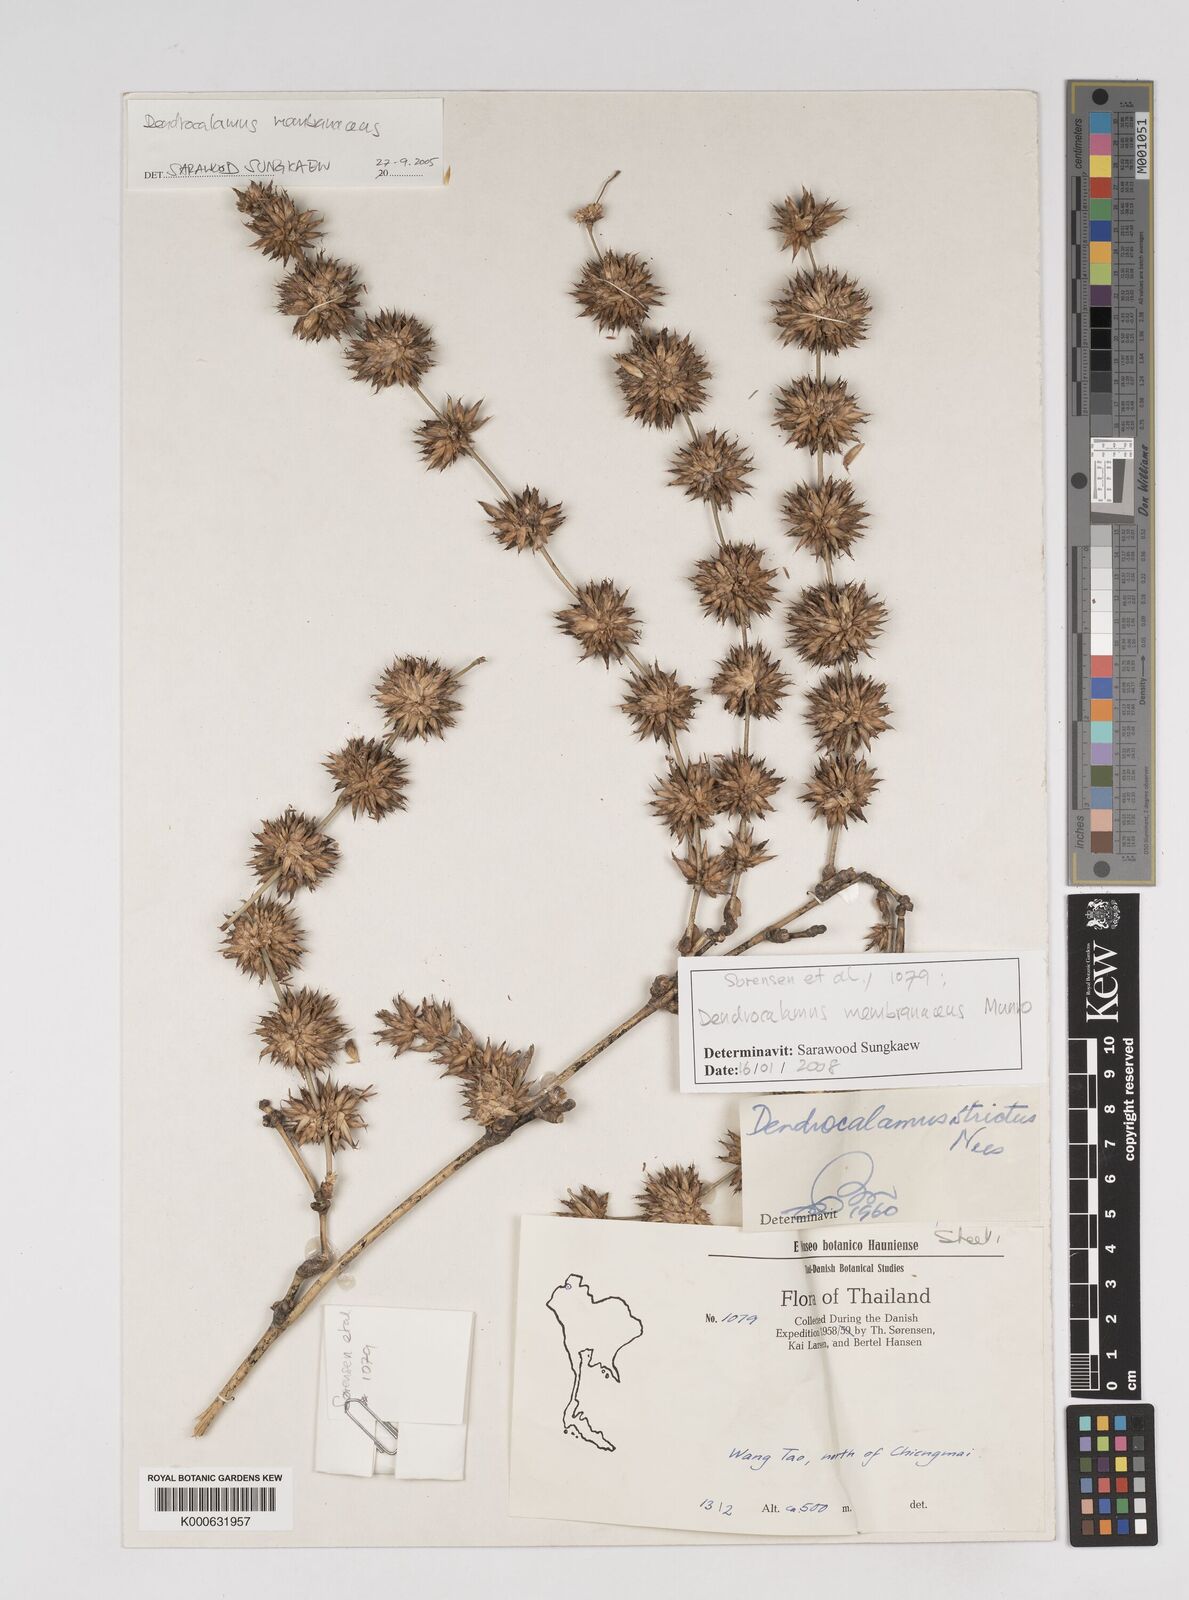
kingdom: Plantae
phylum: Tracheophyta
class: Liliopsida
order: Poales
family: Poaceae
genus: Dendrocalamus
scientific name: Dendrocalamus membranaceus
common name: White bamboo
